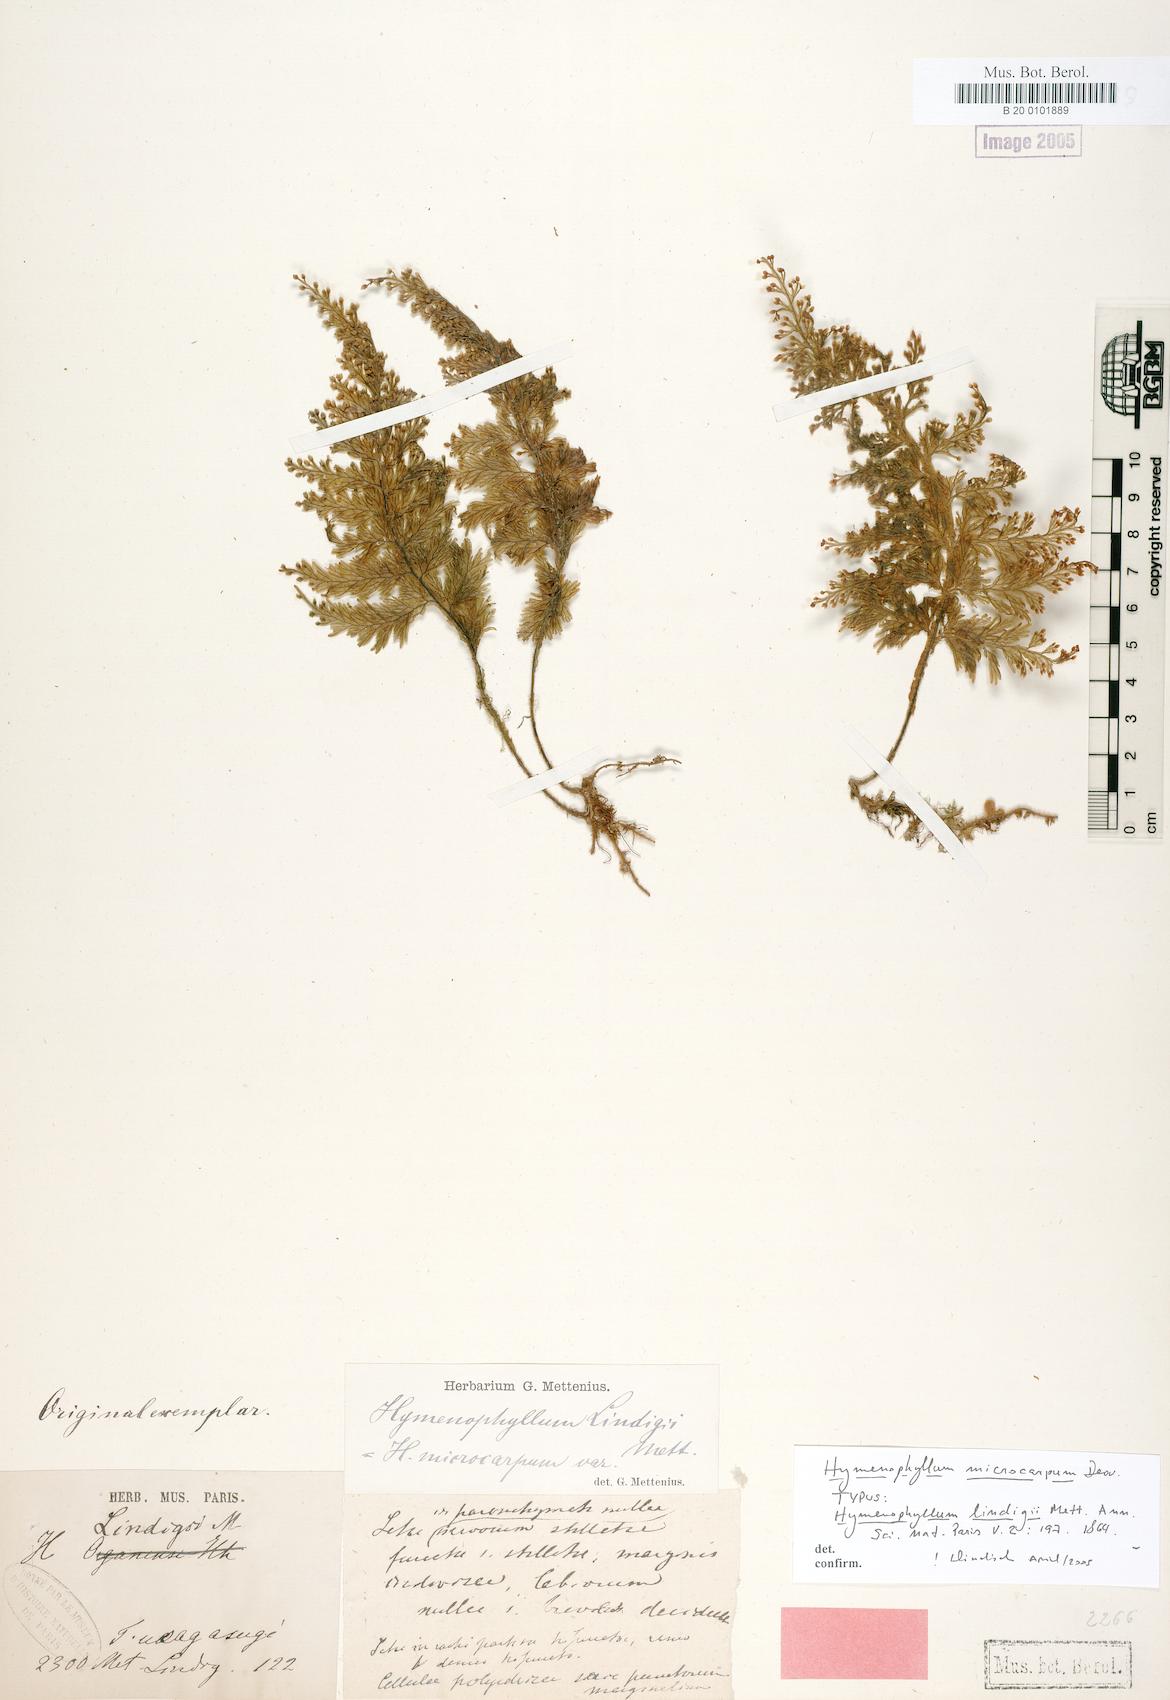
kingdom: Plantae
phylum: Tracheophyta
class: Polypodiopsida
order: Hymenophyllales
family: Hymenophyllaceae
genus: Hymenophyllum
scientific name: Hymenophyllum microcarpum
